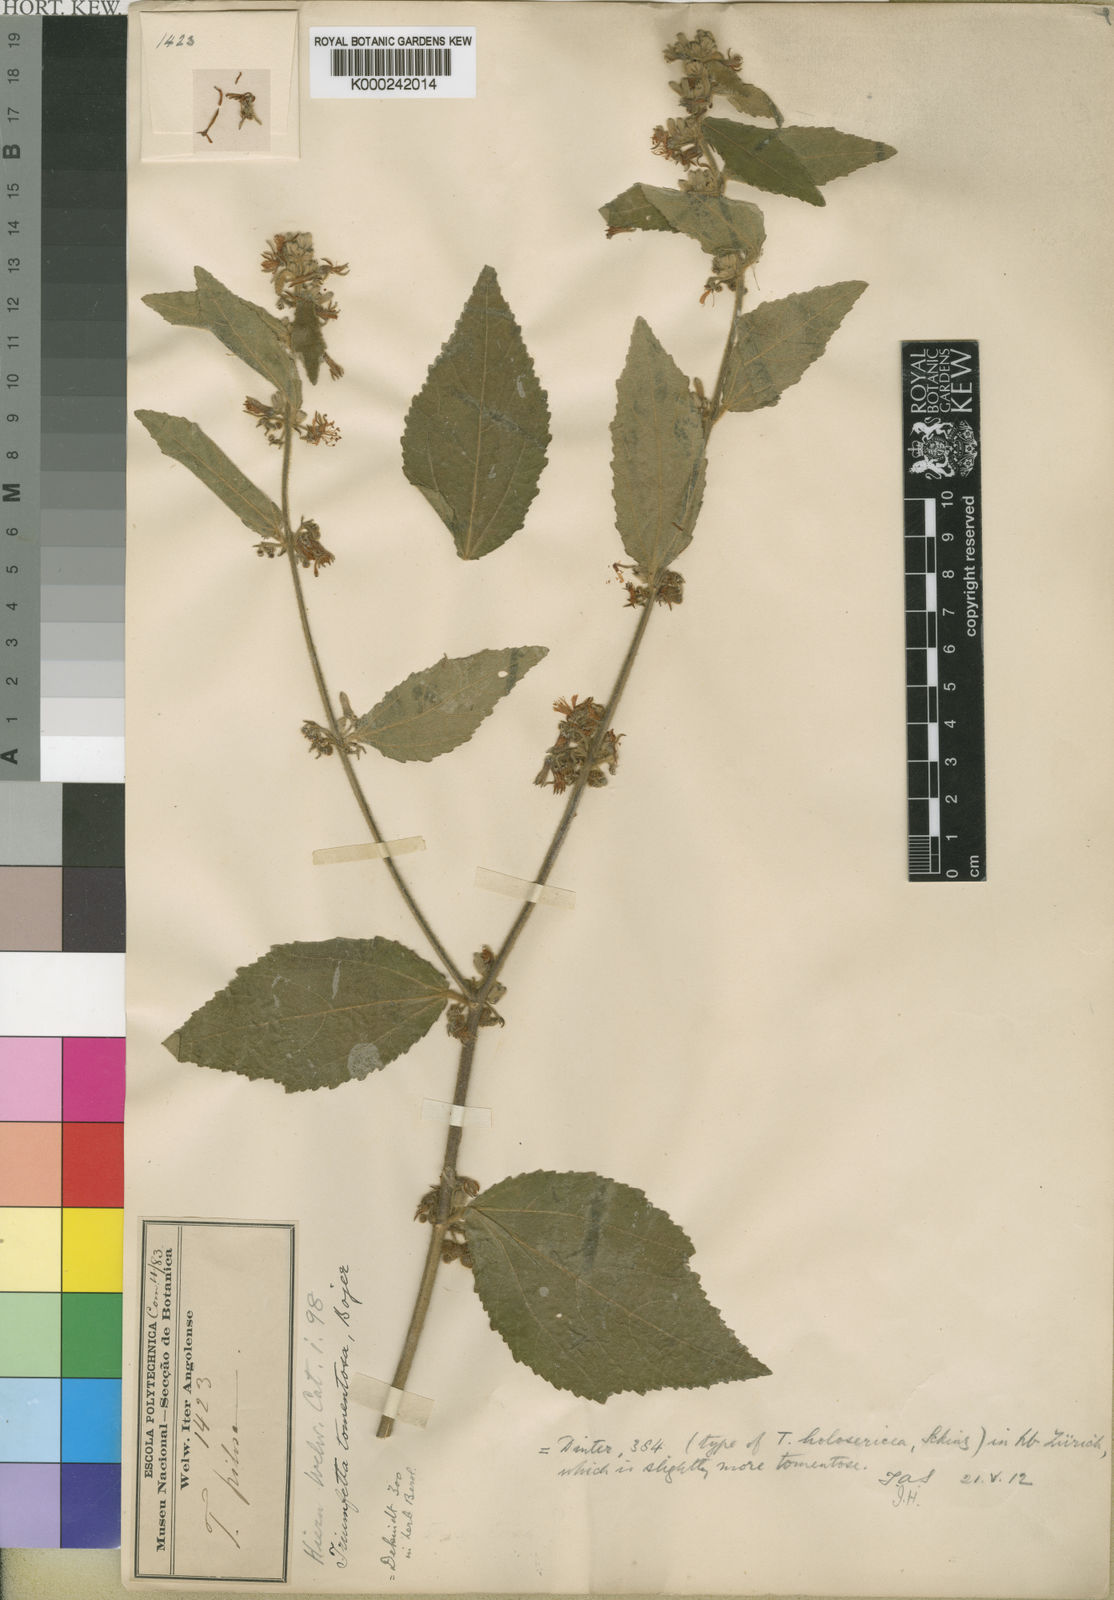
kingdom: Plantae
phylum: Tracheophyta
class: Magnoliopsida
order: Malvales
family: Malvaceae
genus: Triumfetta
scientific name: Triumfetta
